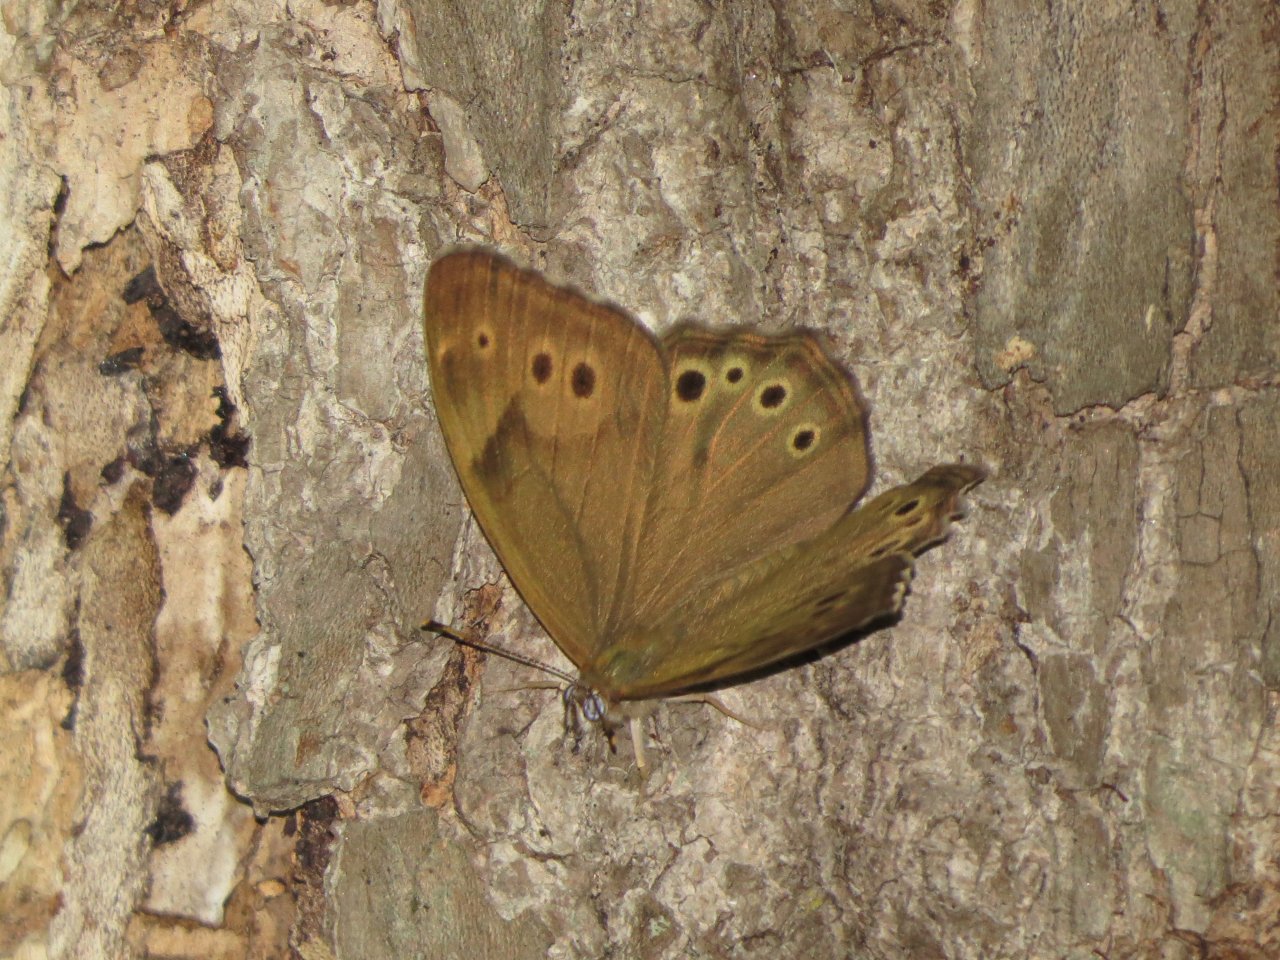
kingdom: Animalia
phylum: Arthropoda
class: Insecta
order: Lepidoptera
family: Nymphalidae
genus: Lethe
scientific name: Lethe anthedon
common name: Northern Pearly-Eye
